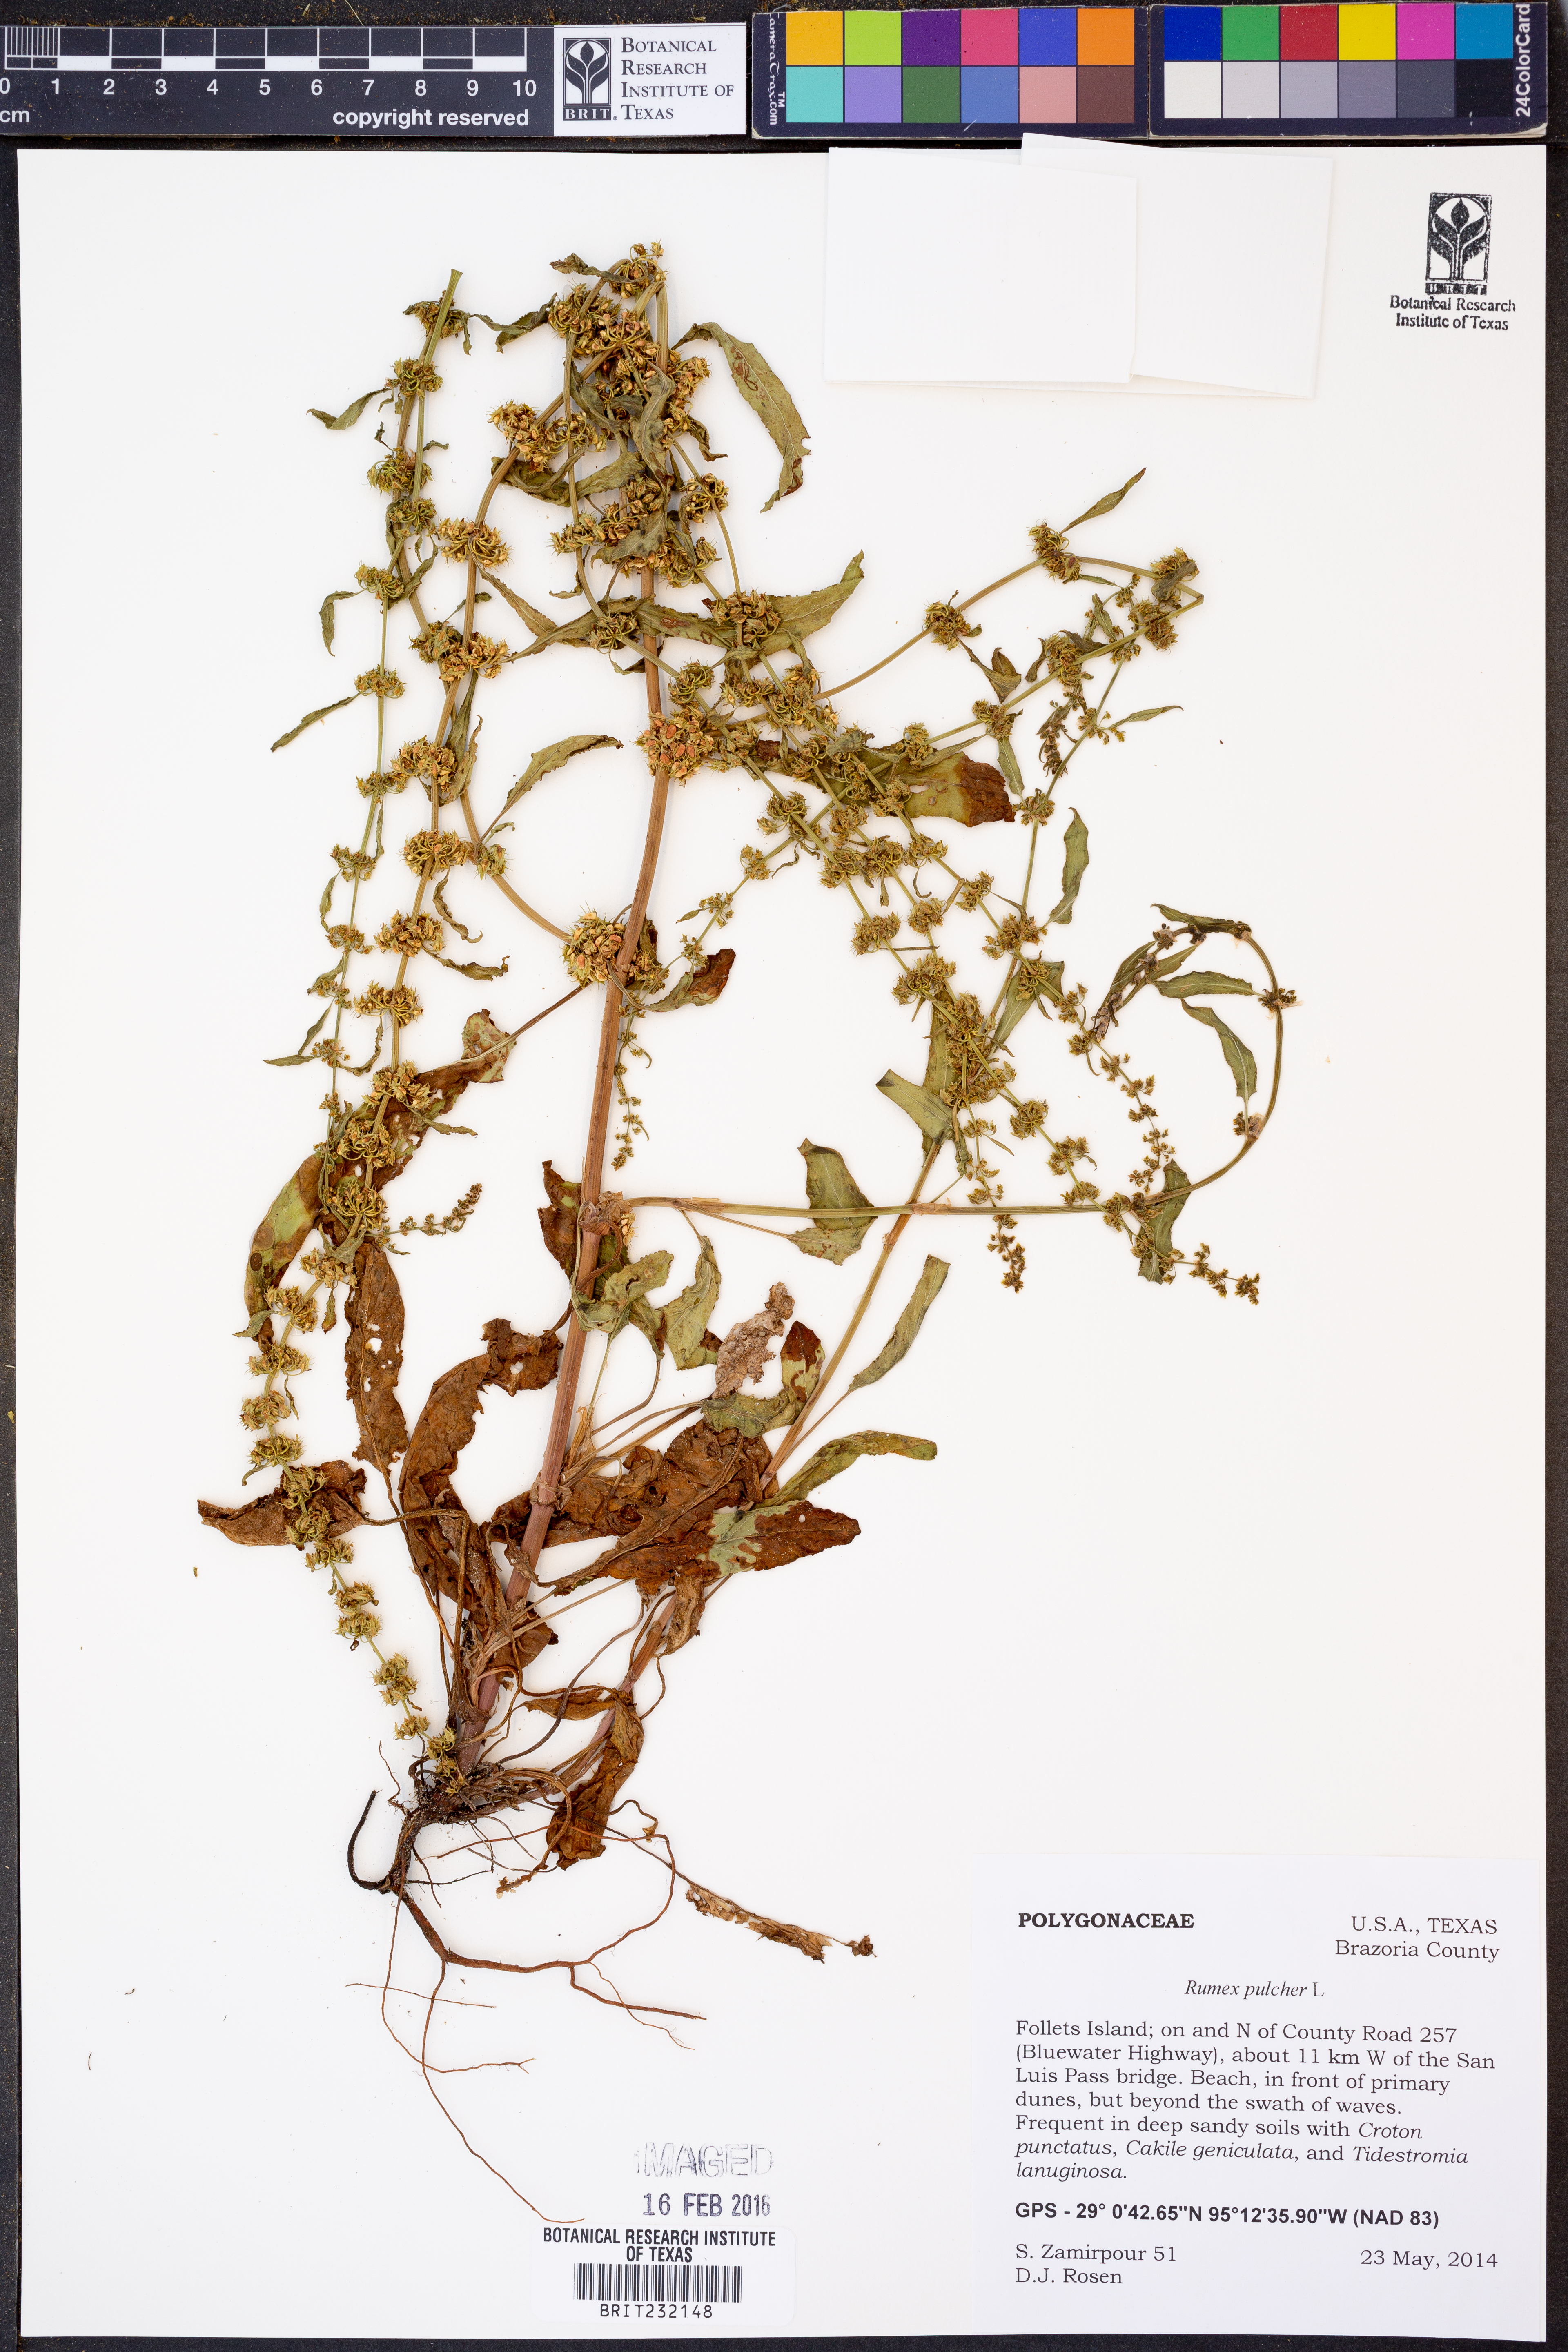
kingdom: Plantae
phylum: Tracheophyta
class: Magnoliopsida
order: Caryophyllales
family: Polygonaceae
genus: Rumex
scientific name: Rumex pulcher
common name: Fiddle dock
